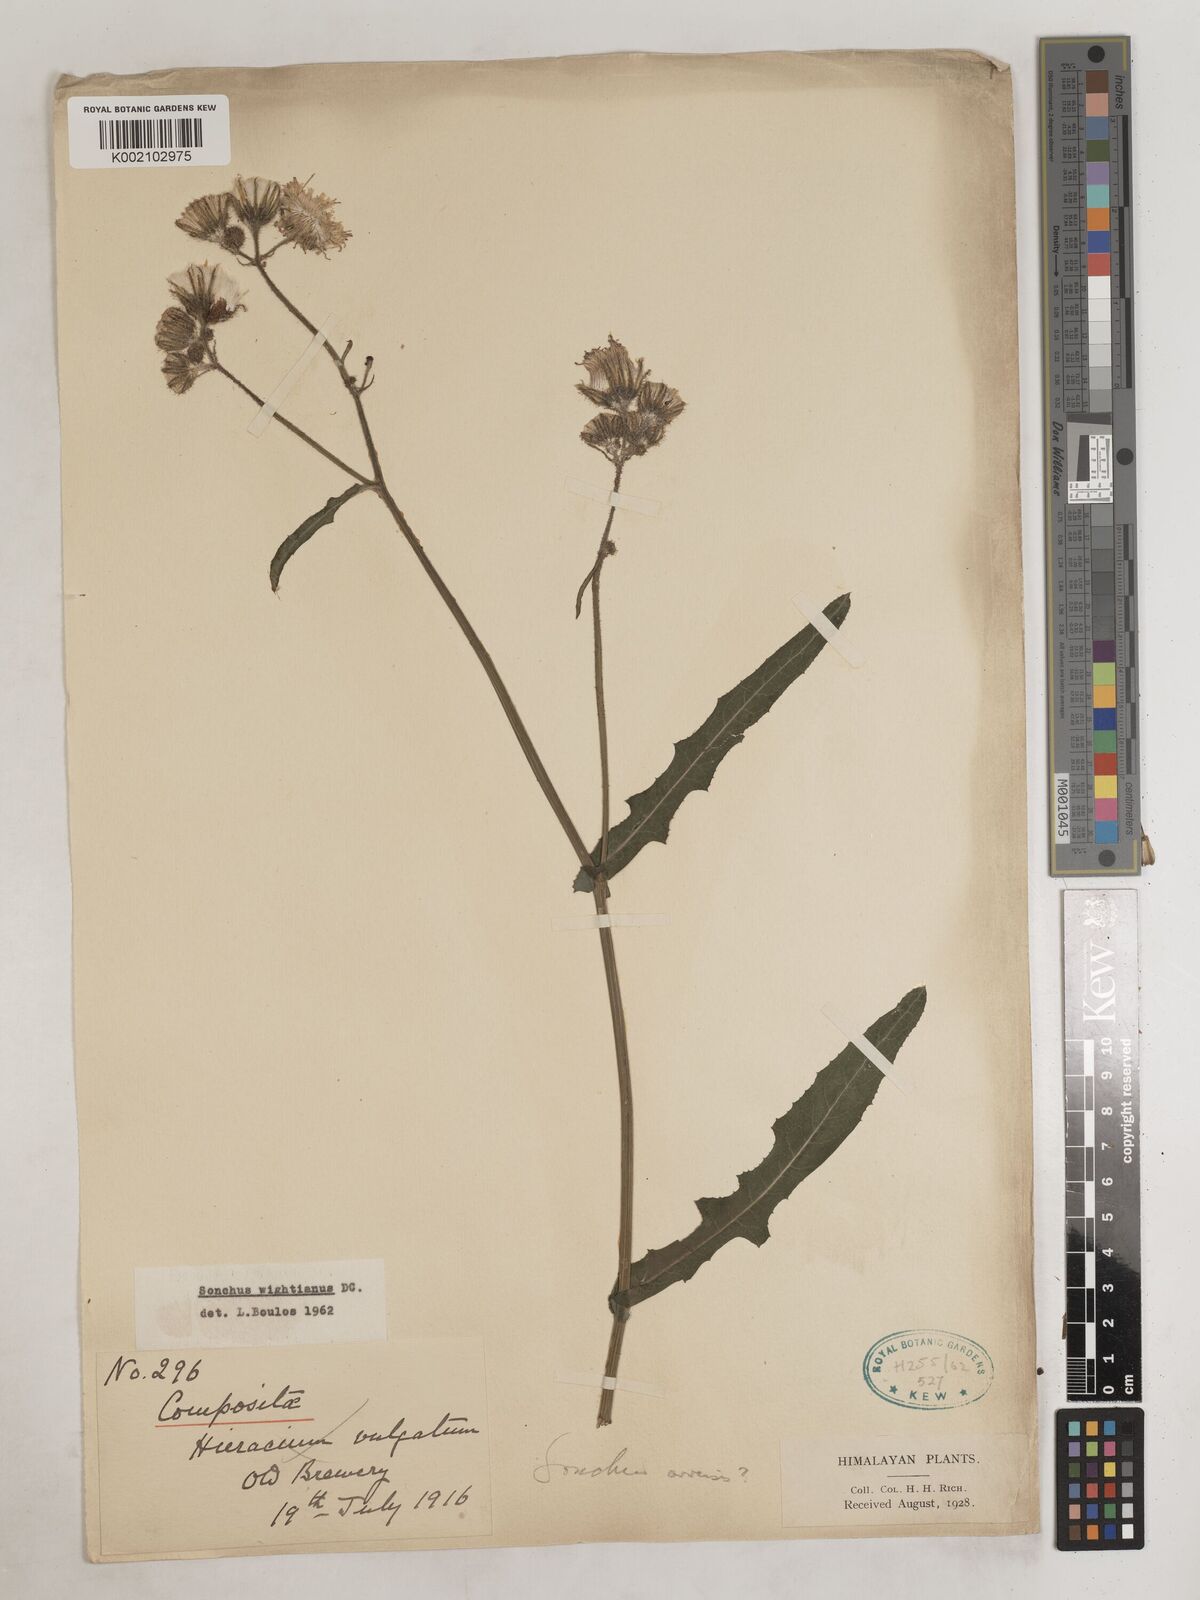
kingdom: Plantae
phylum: Tracheophyta
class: Magnoliopsida
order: Asterales
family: Asteraceae
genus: Sonchus
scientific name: Sonchus
